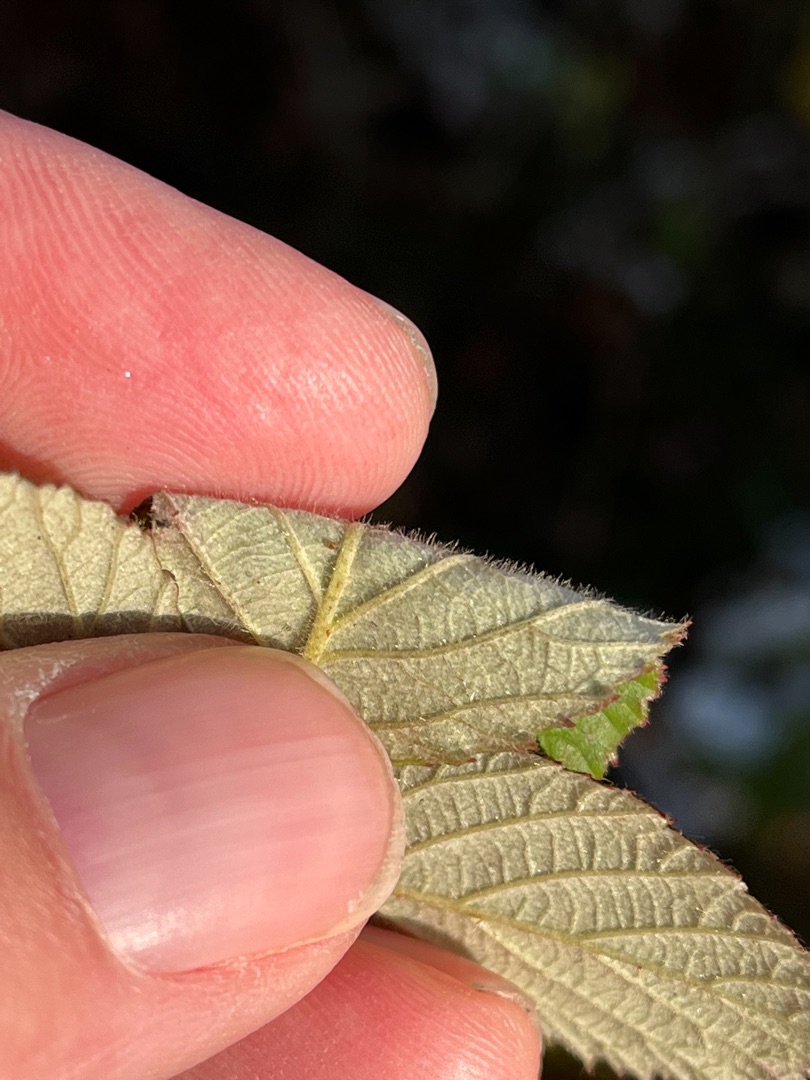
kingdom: Plantae
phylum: Tracheophyta
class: Magnoliopsida
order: Rosales
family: Rosaceae
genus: Rubus
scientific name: Rubus vestitus
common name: Rundbladet brombær
